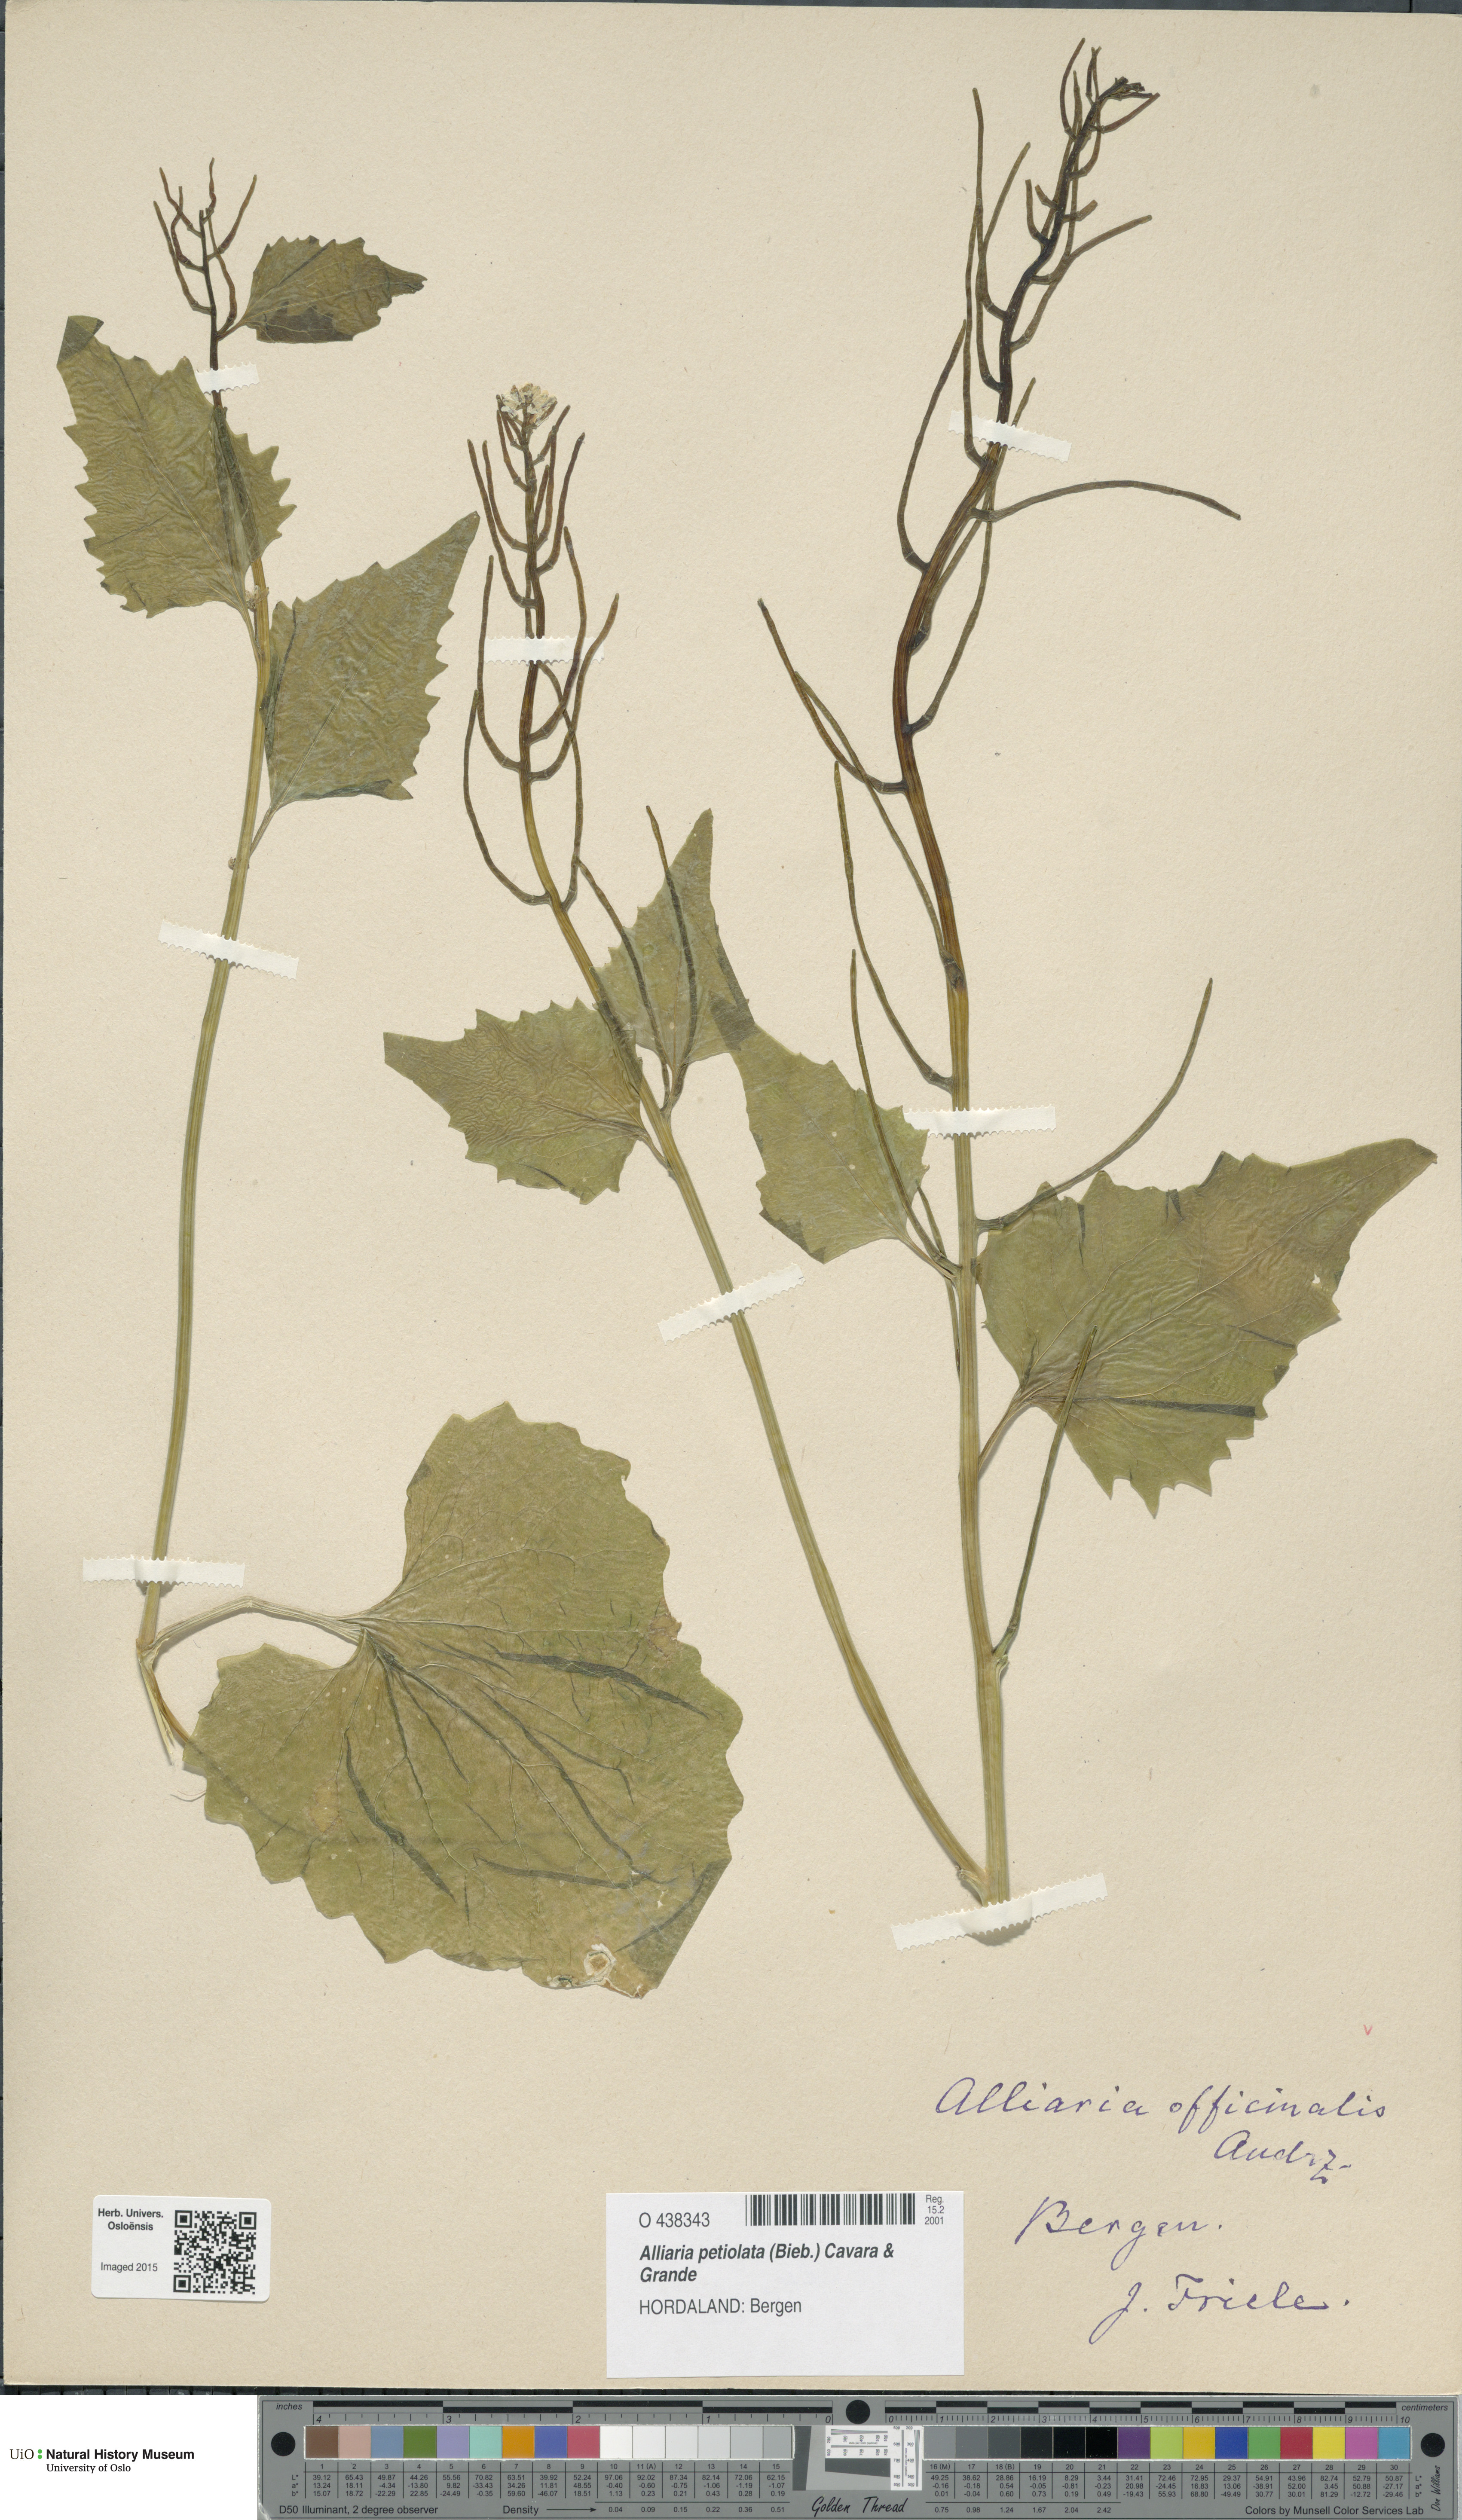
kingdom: Plantae
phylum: Tracheophyta
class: Magnoliopsida
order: Brassicales
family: Brassicaceae
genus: Alliaria
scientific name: Alliaria petiolata
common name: Garlic mustard
